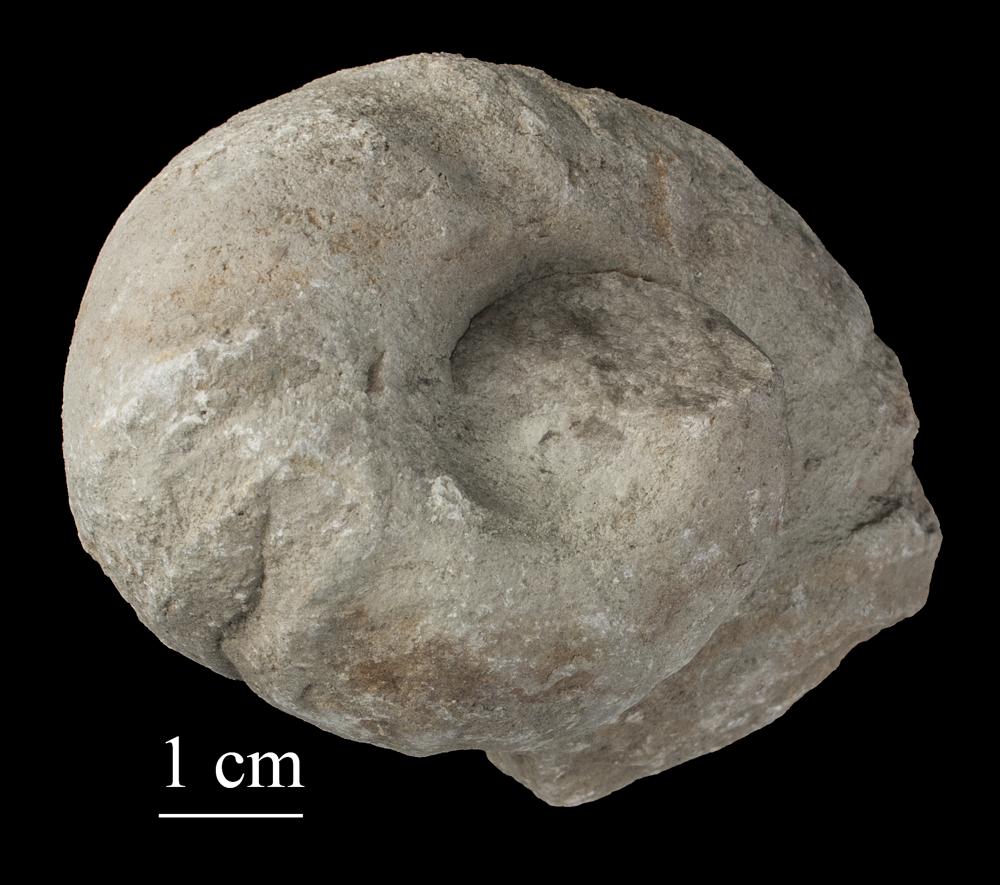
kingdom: Animalia
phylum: Mollusca
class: Gastropoda
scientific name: Gastropoda
